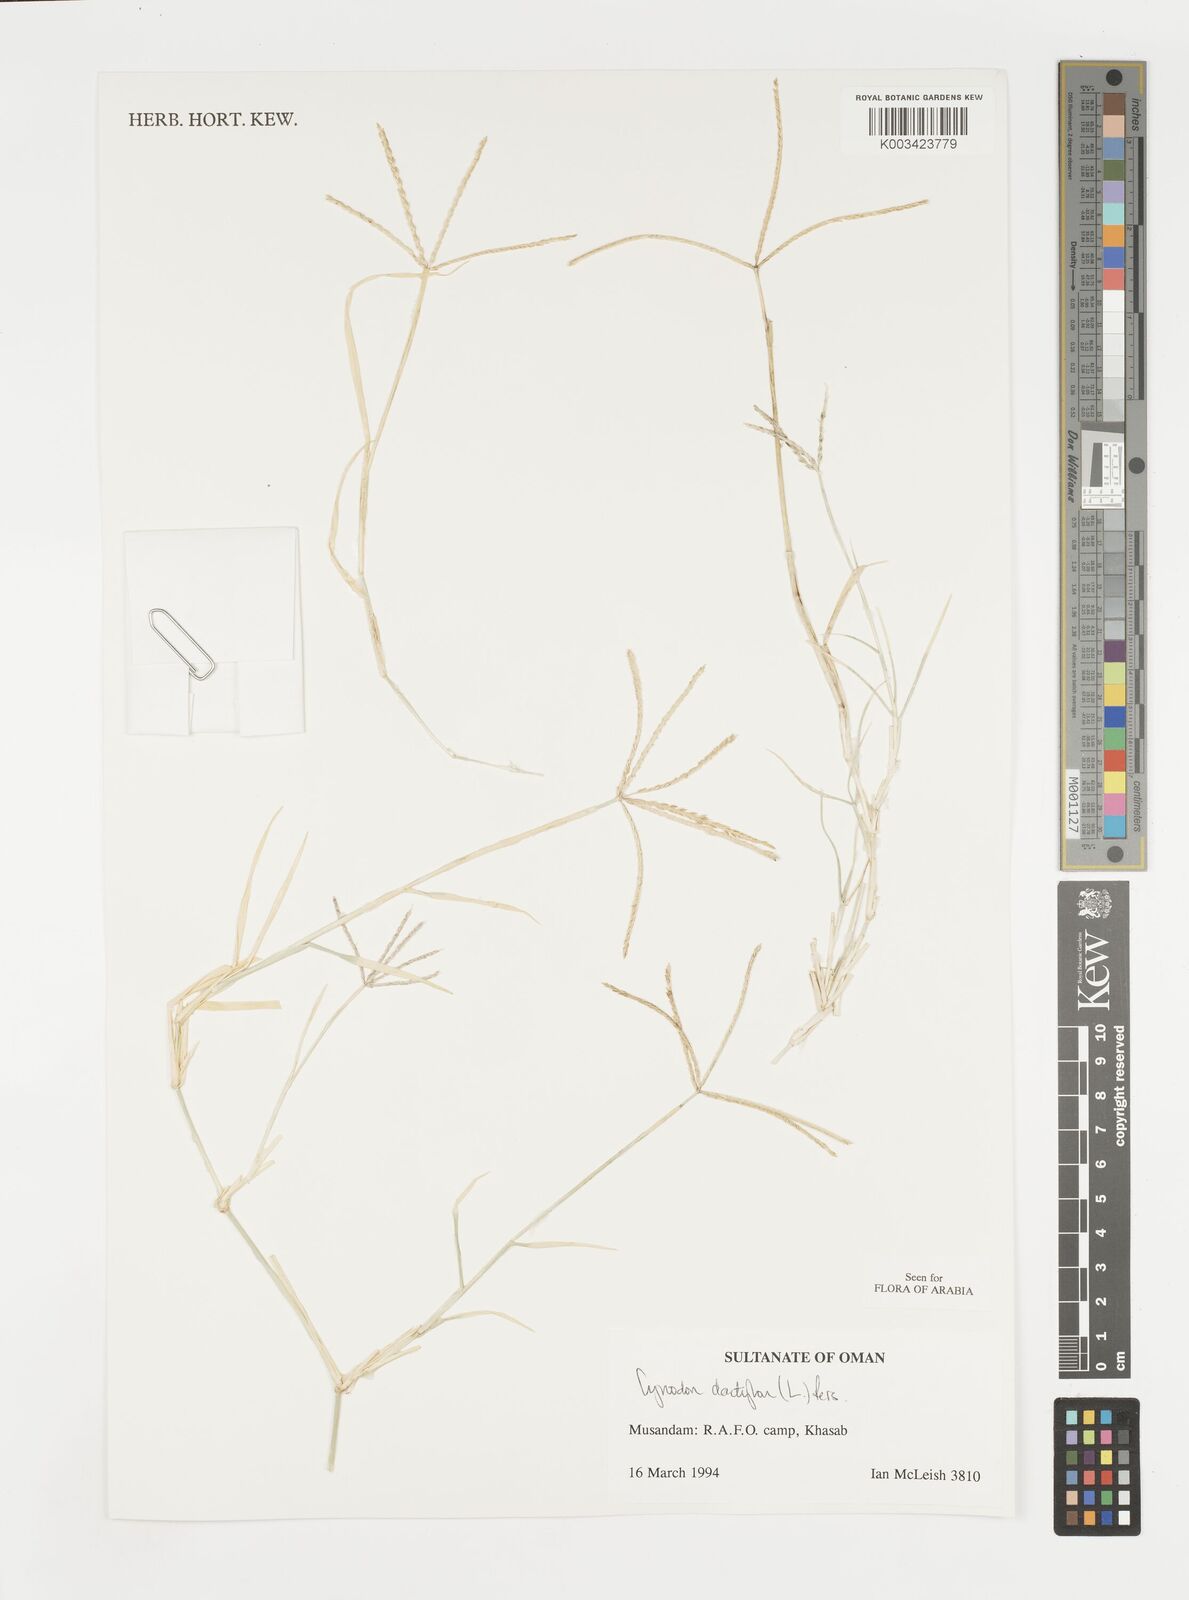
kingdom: Plantae
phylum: Tracheophyta
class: Liliopsida
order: Poales
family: Poaceae
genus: Cynodon
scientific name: Cynodon dactylon
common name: Bermuda grass
